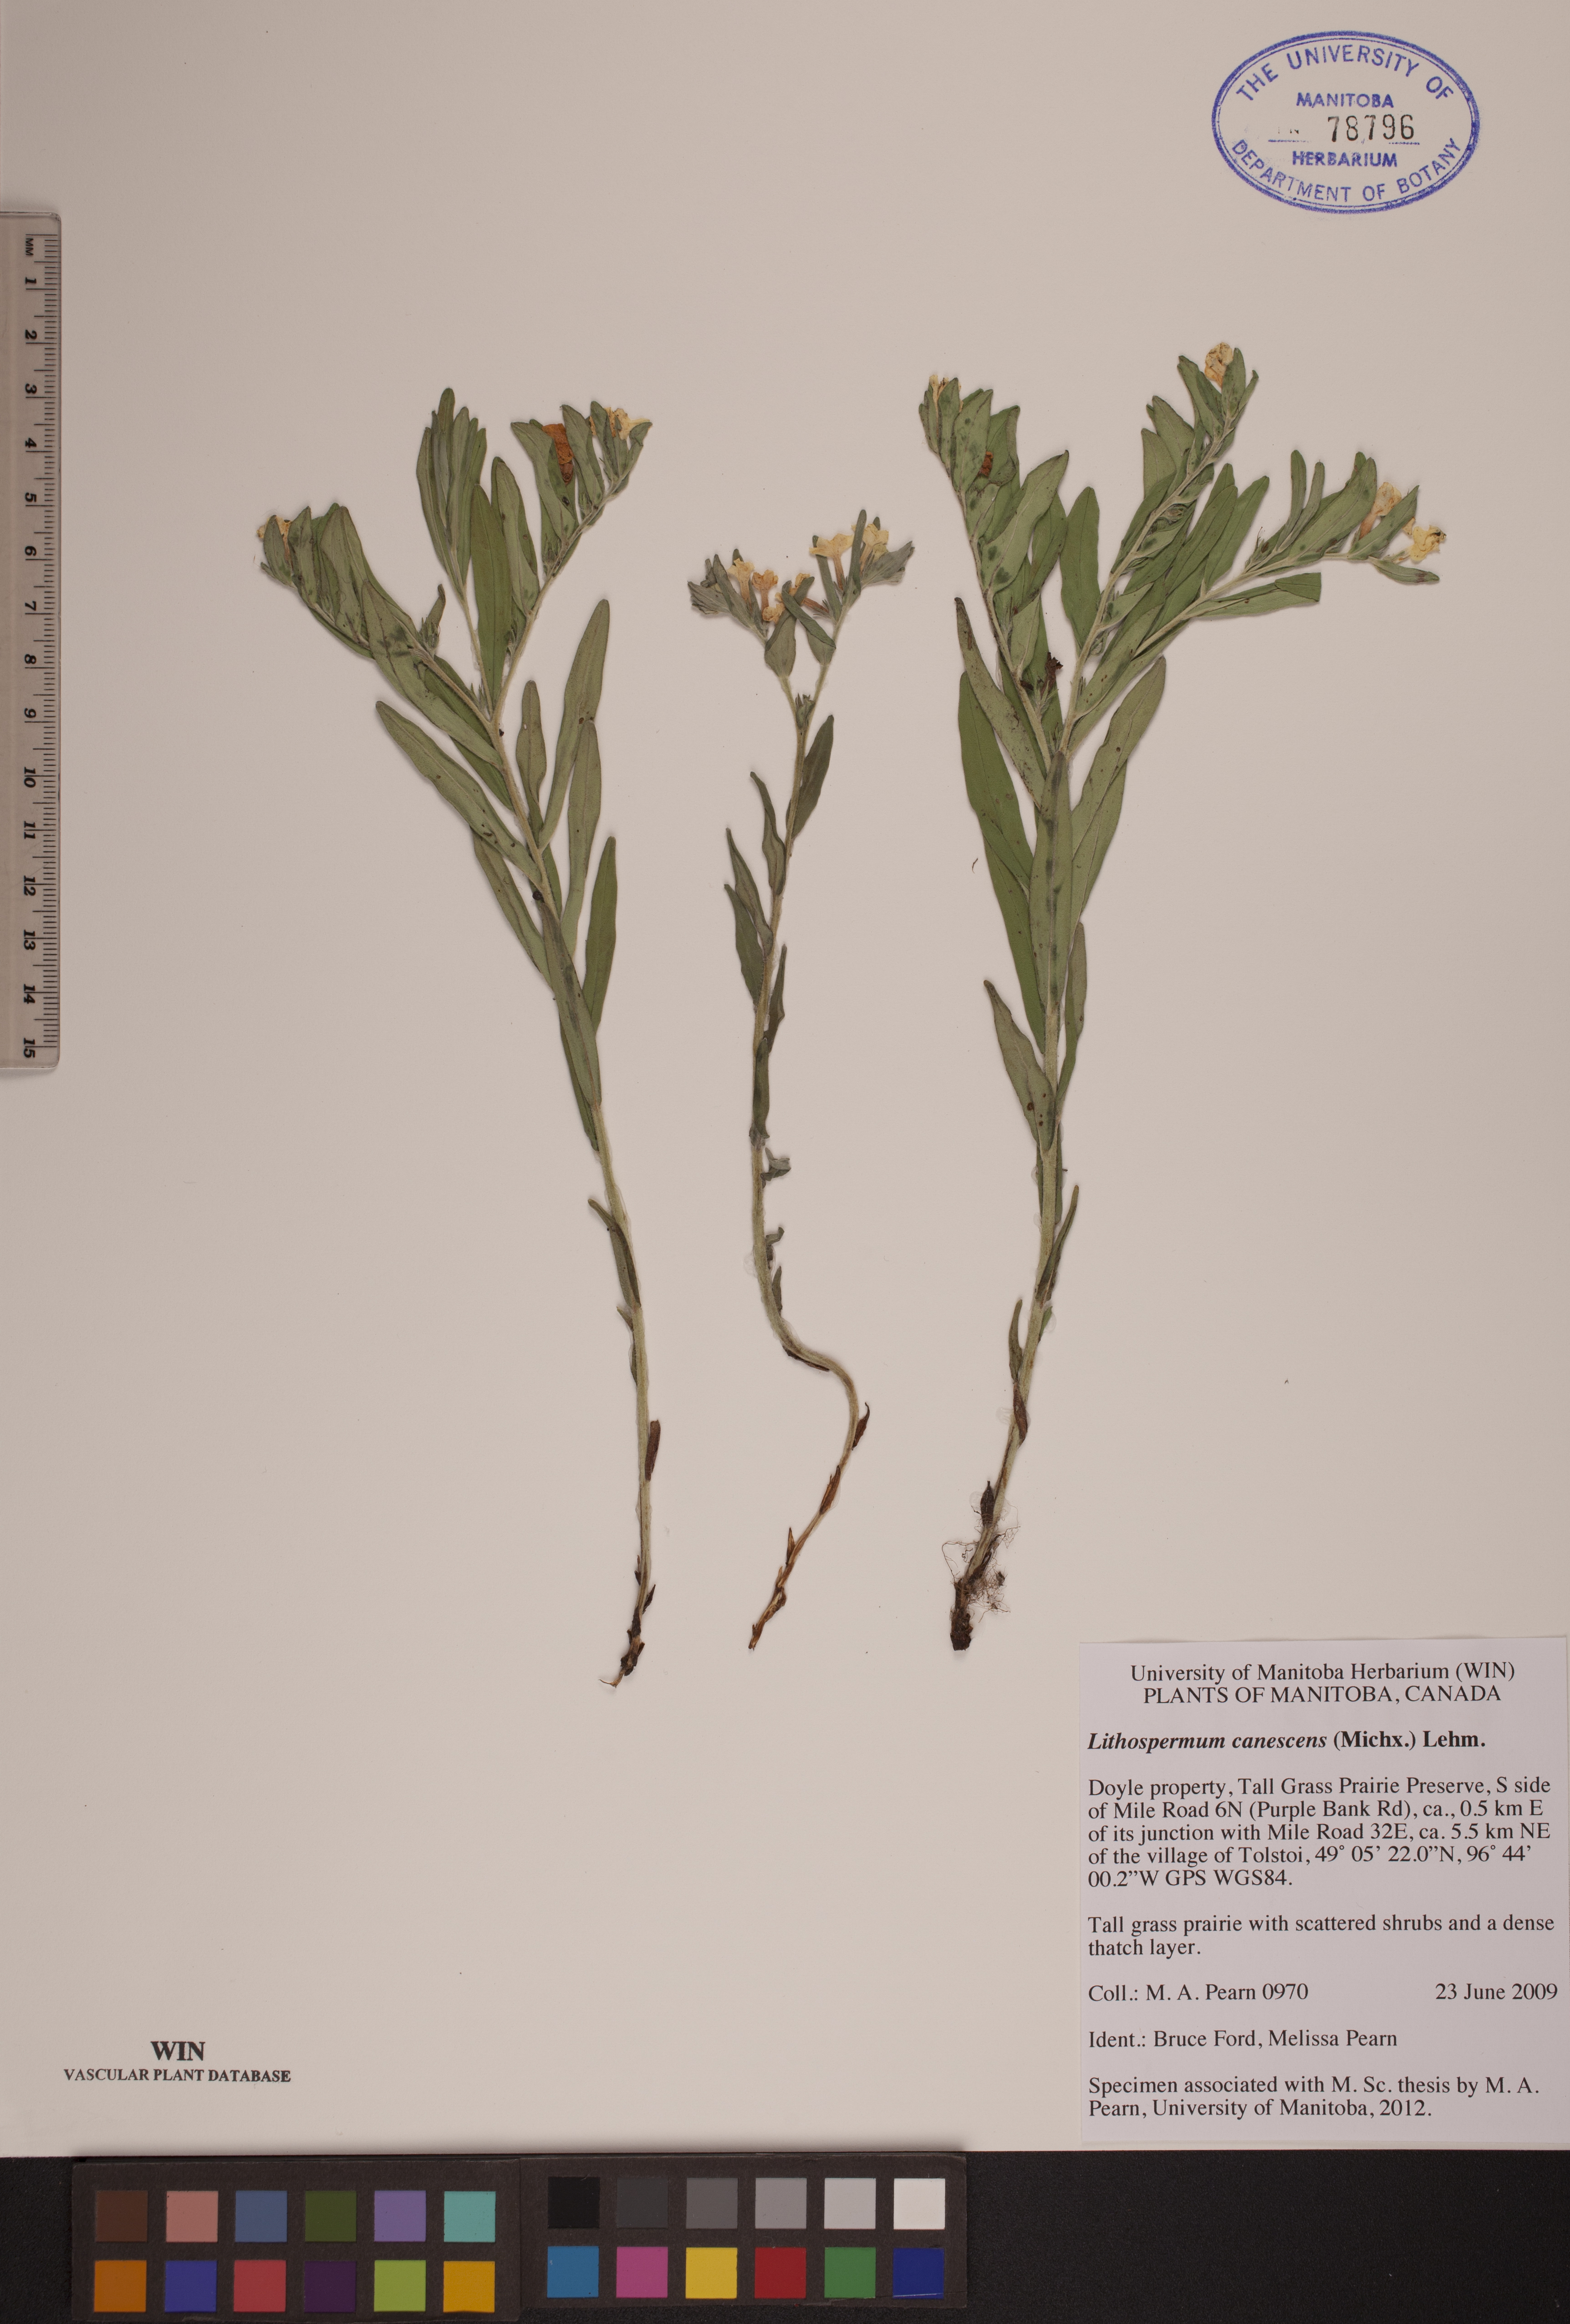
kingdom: Plantae
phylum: Tracheophyta
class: Magnoliopsida
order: Boraginales
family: Boraginaceae
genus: Lithospermum
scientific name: Lithospermum canescens
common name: Hoary puccoon
